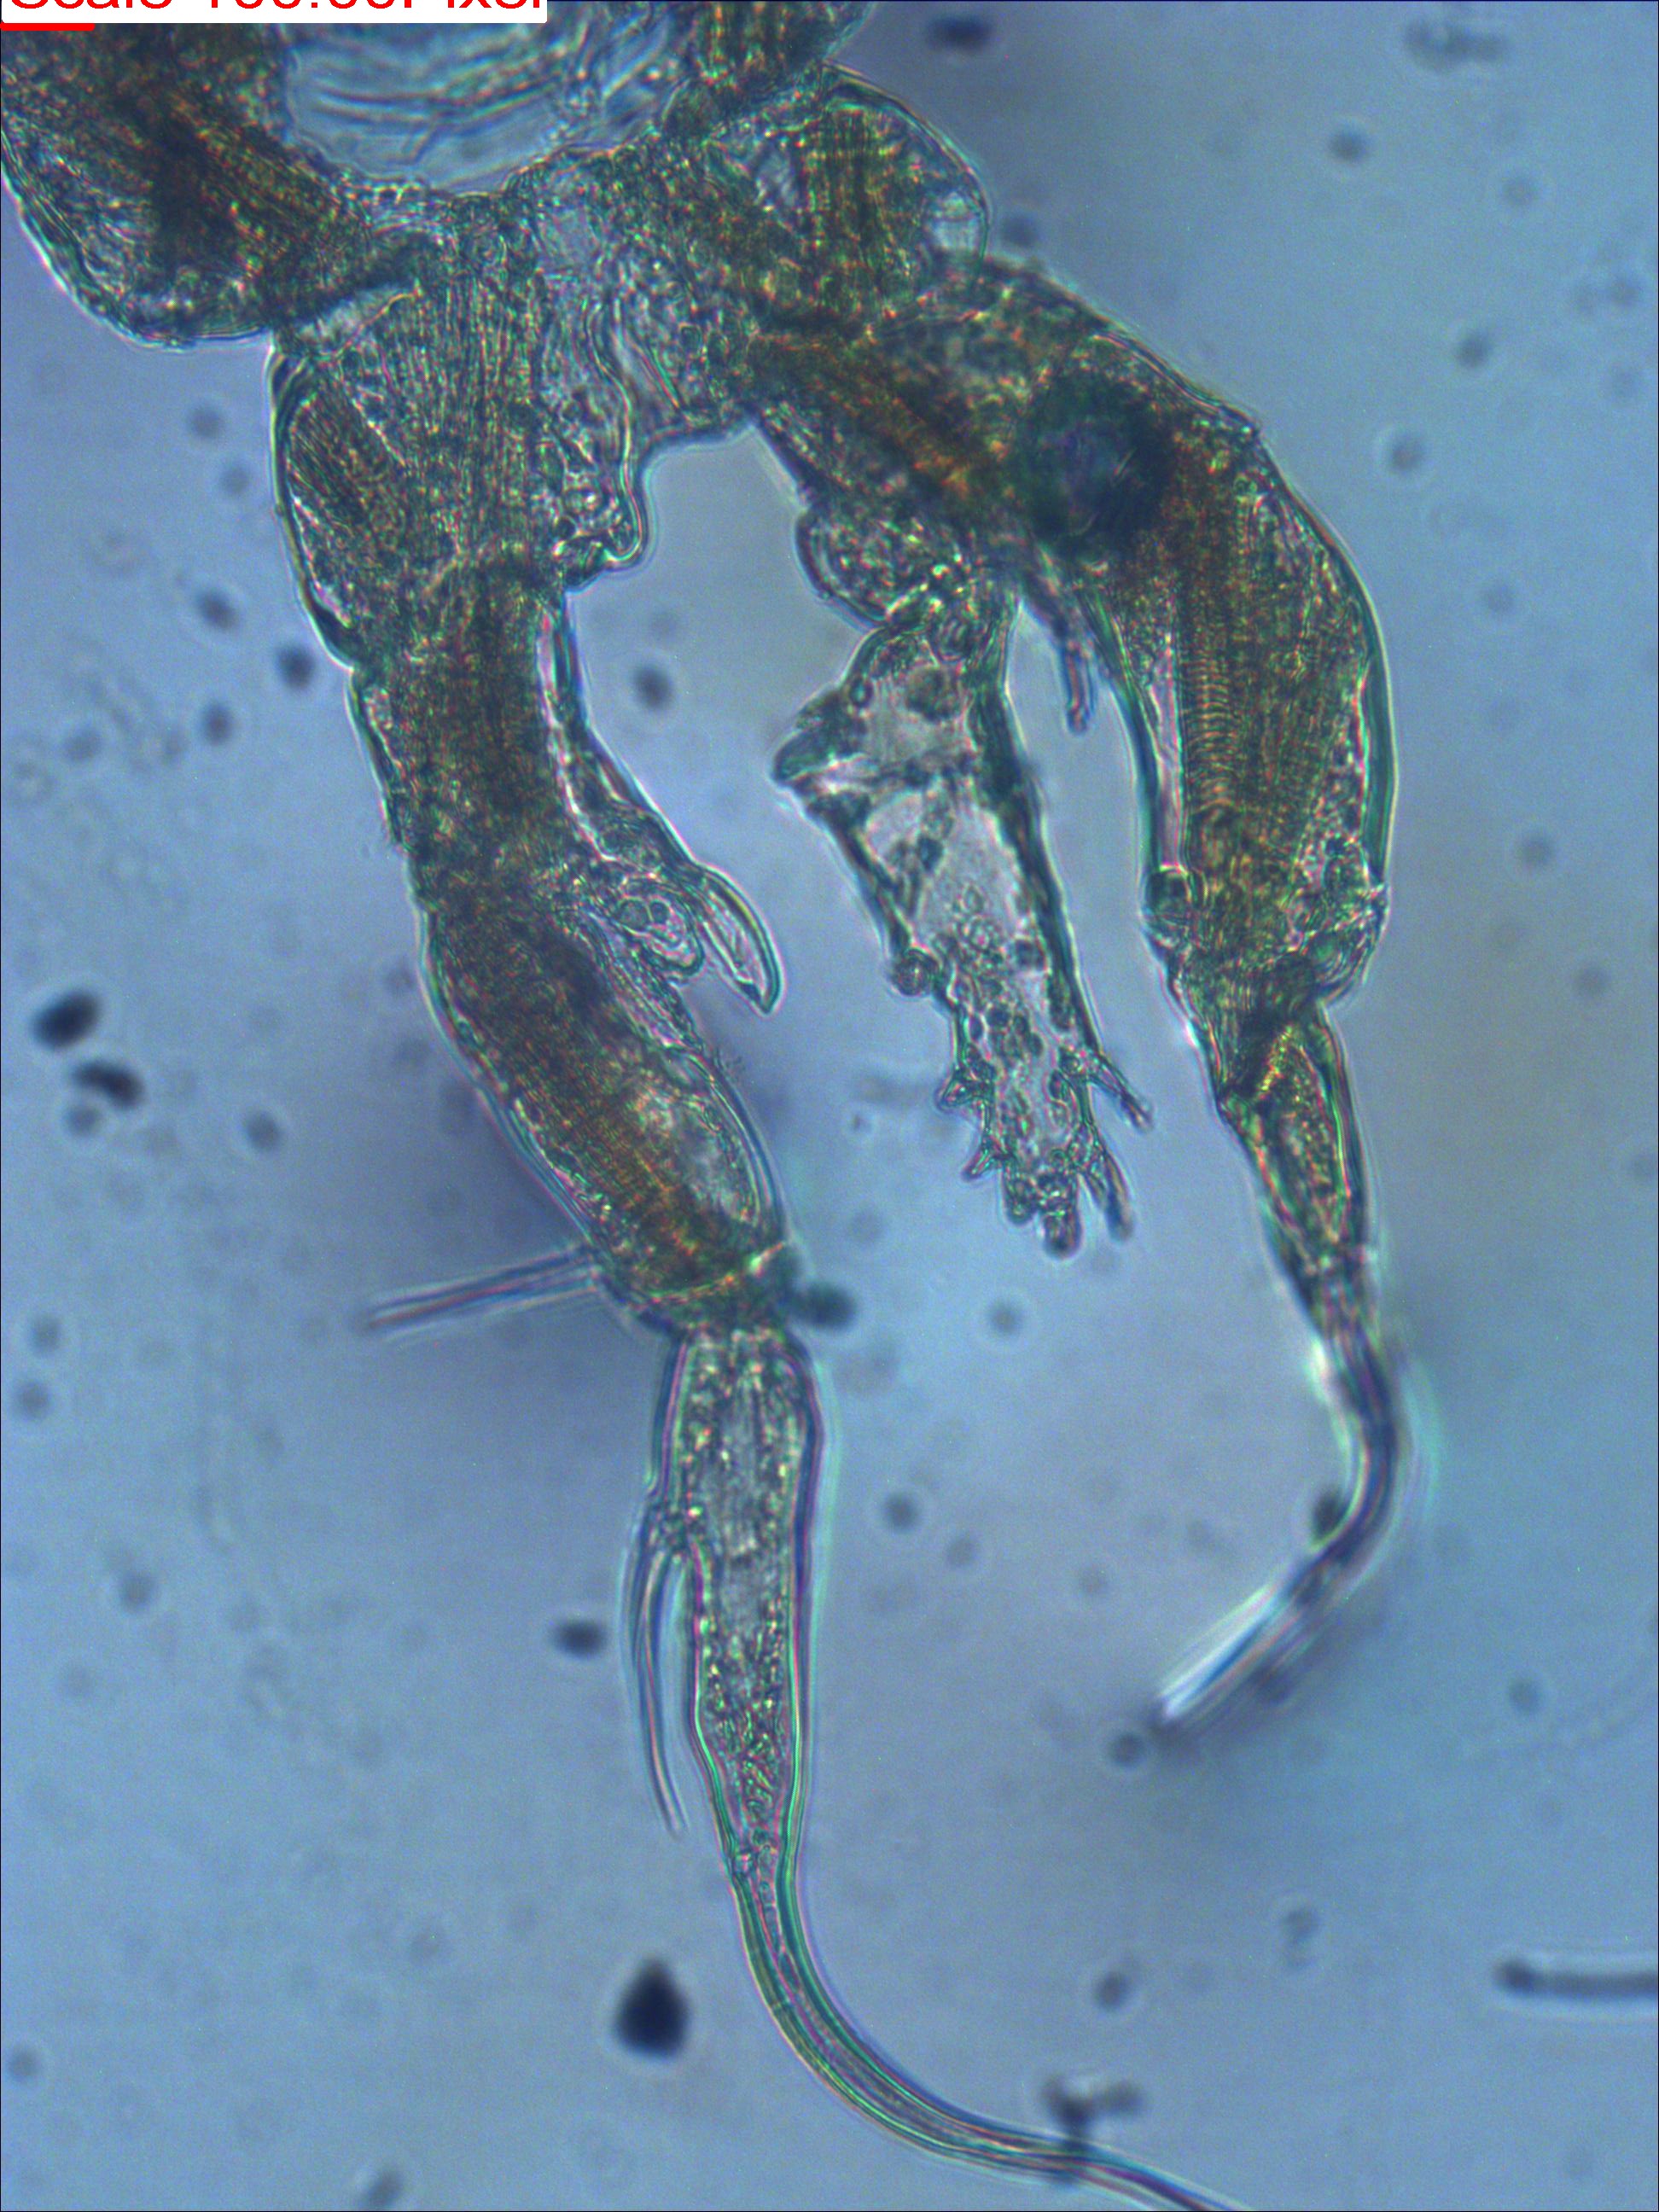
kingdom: Animalia
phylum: Arthropoda
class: Copepoda
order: Calanoida
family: Centropagidae
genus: Boeckella
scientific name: Boeckella vallentini
